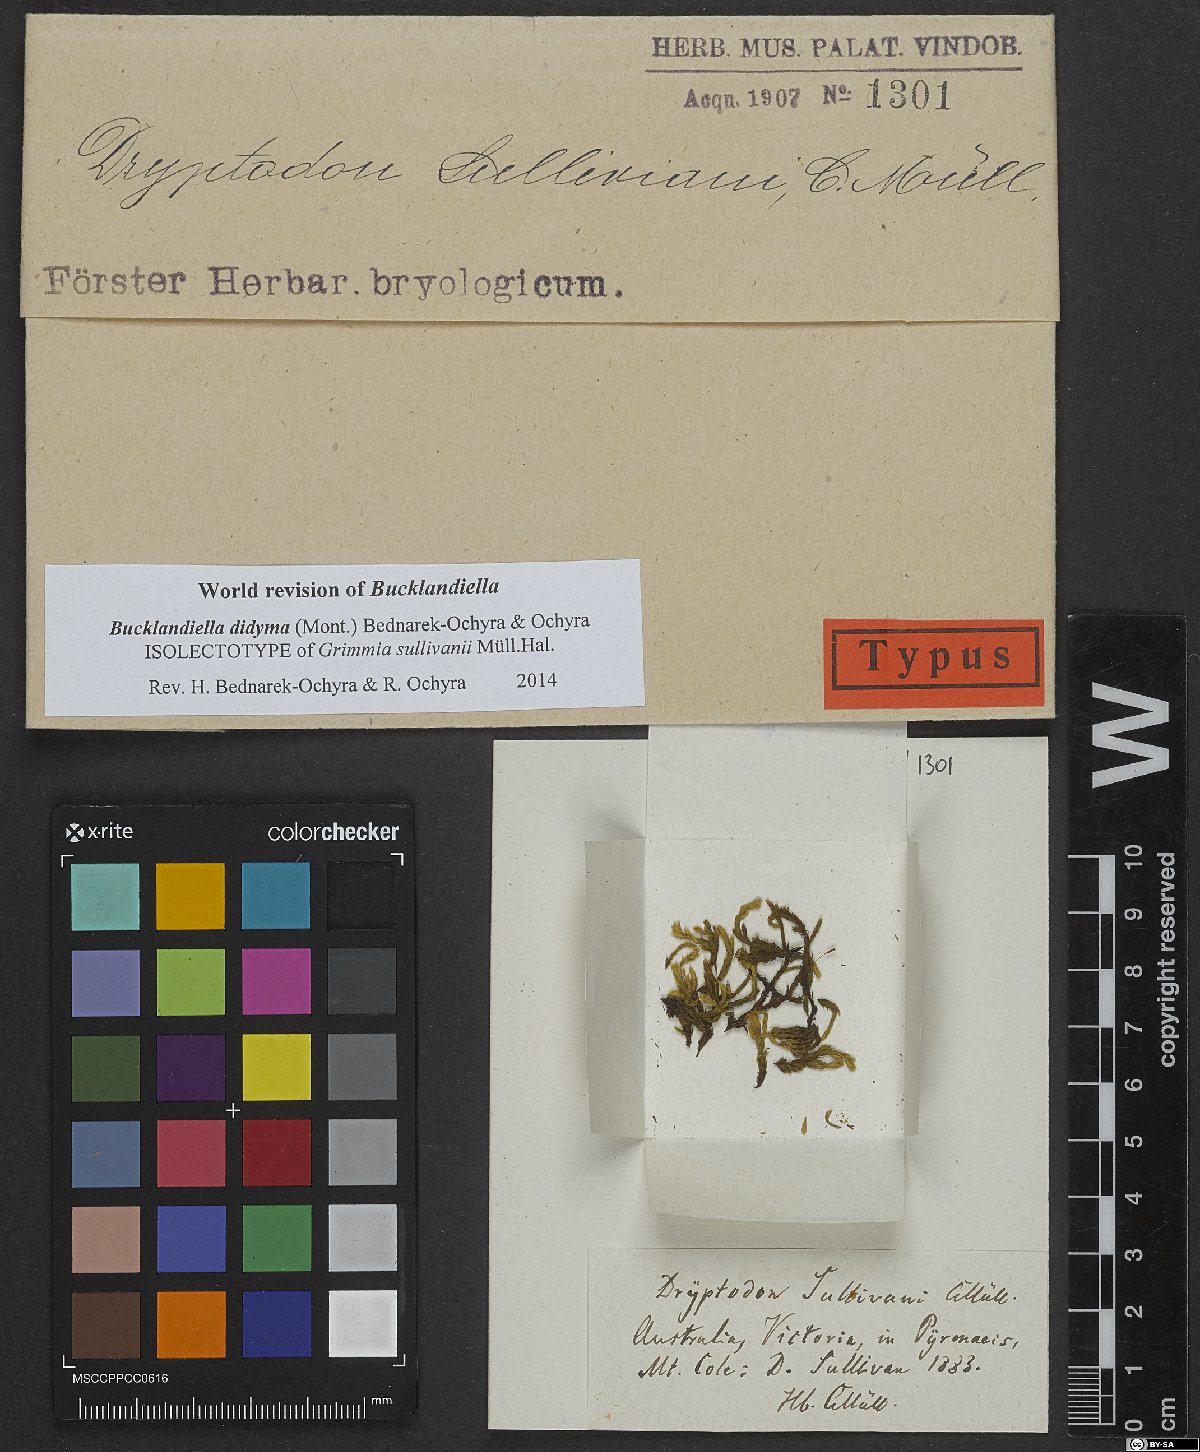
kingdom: Plantae
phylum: Bryophyta
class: Bryopsida
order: Grimmiales
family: Grimmiaceae
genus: Bucklandiella
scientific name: Bucklandiella crispula
